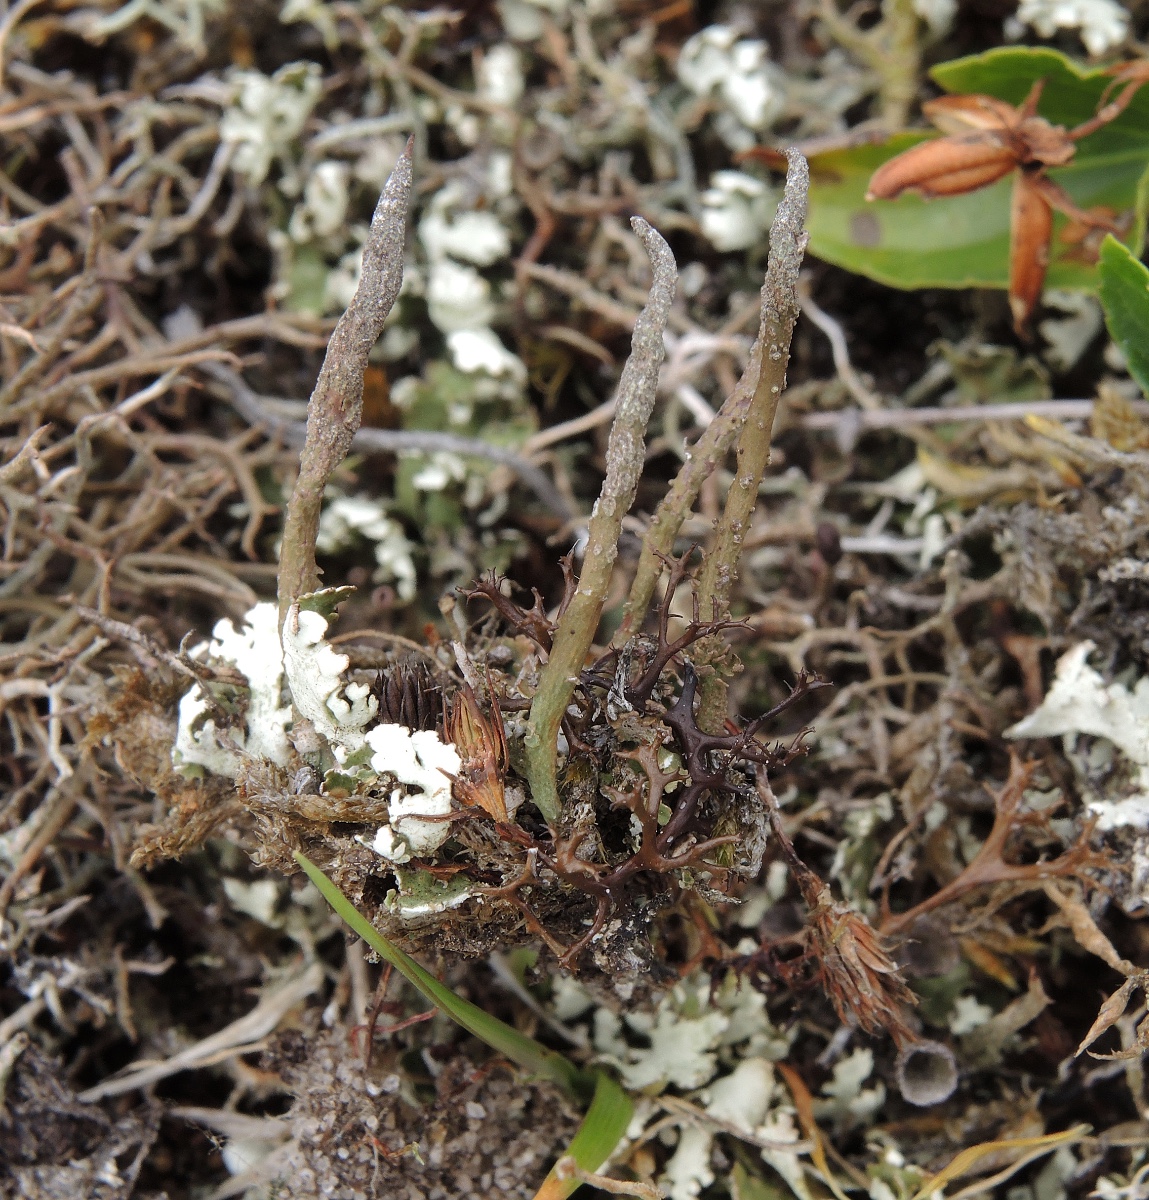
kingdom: Fungi
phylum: Ascomycota
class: Lecanoromycetes
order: Lecanorales
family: Cladoniaceae
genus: Cladonia
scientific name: Cladonia cornuta
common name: syl-bægerlav
